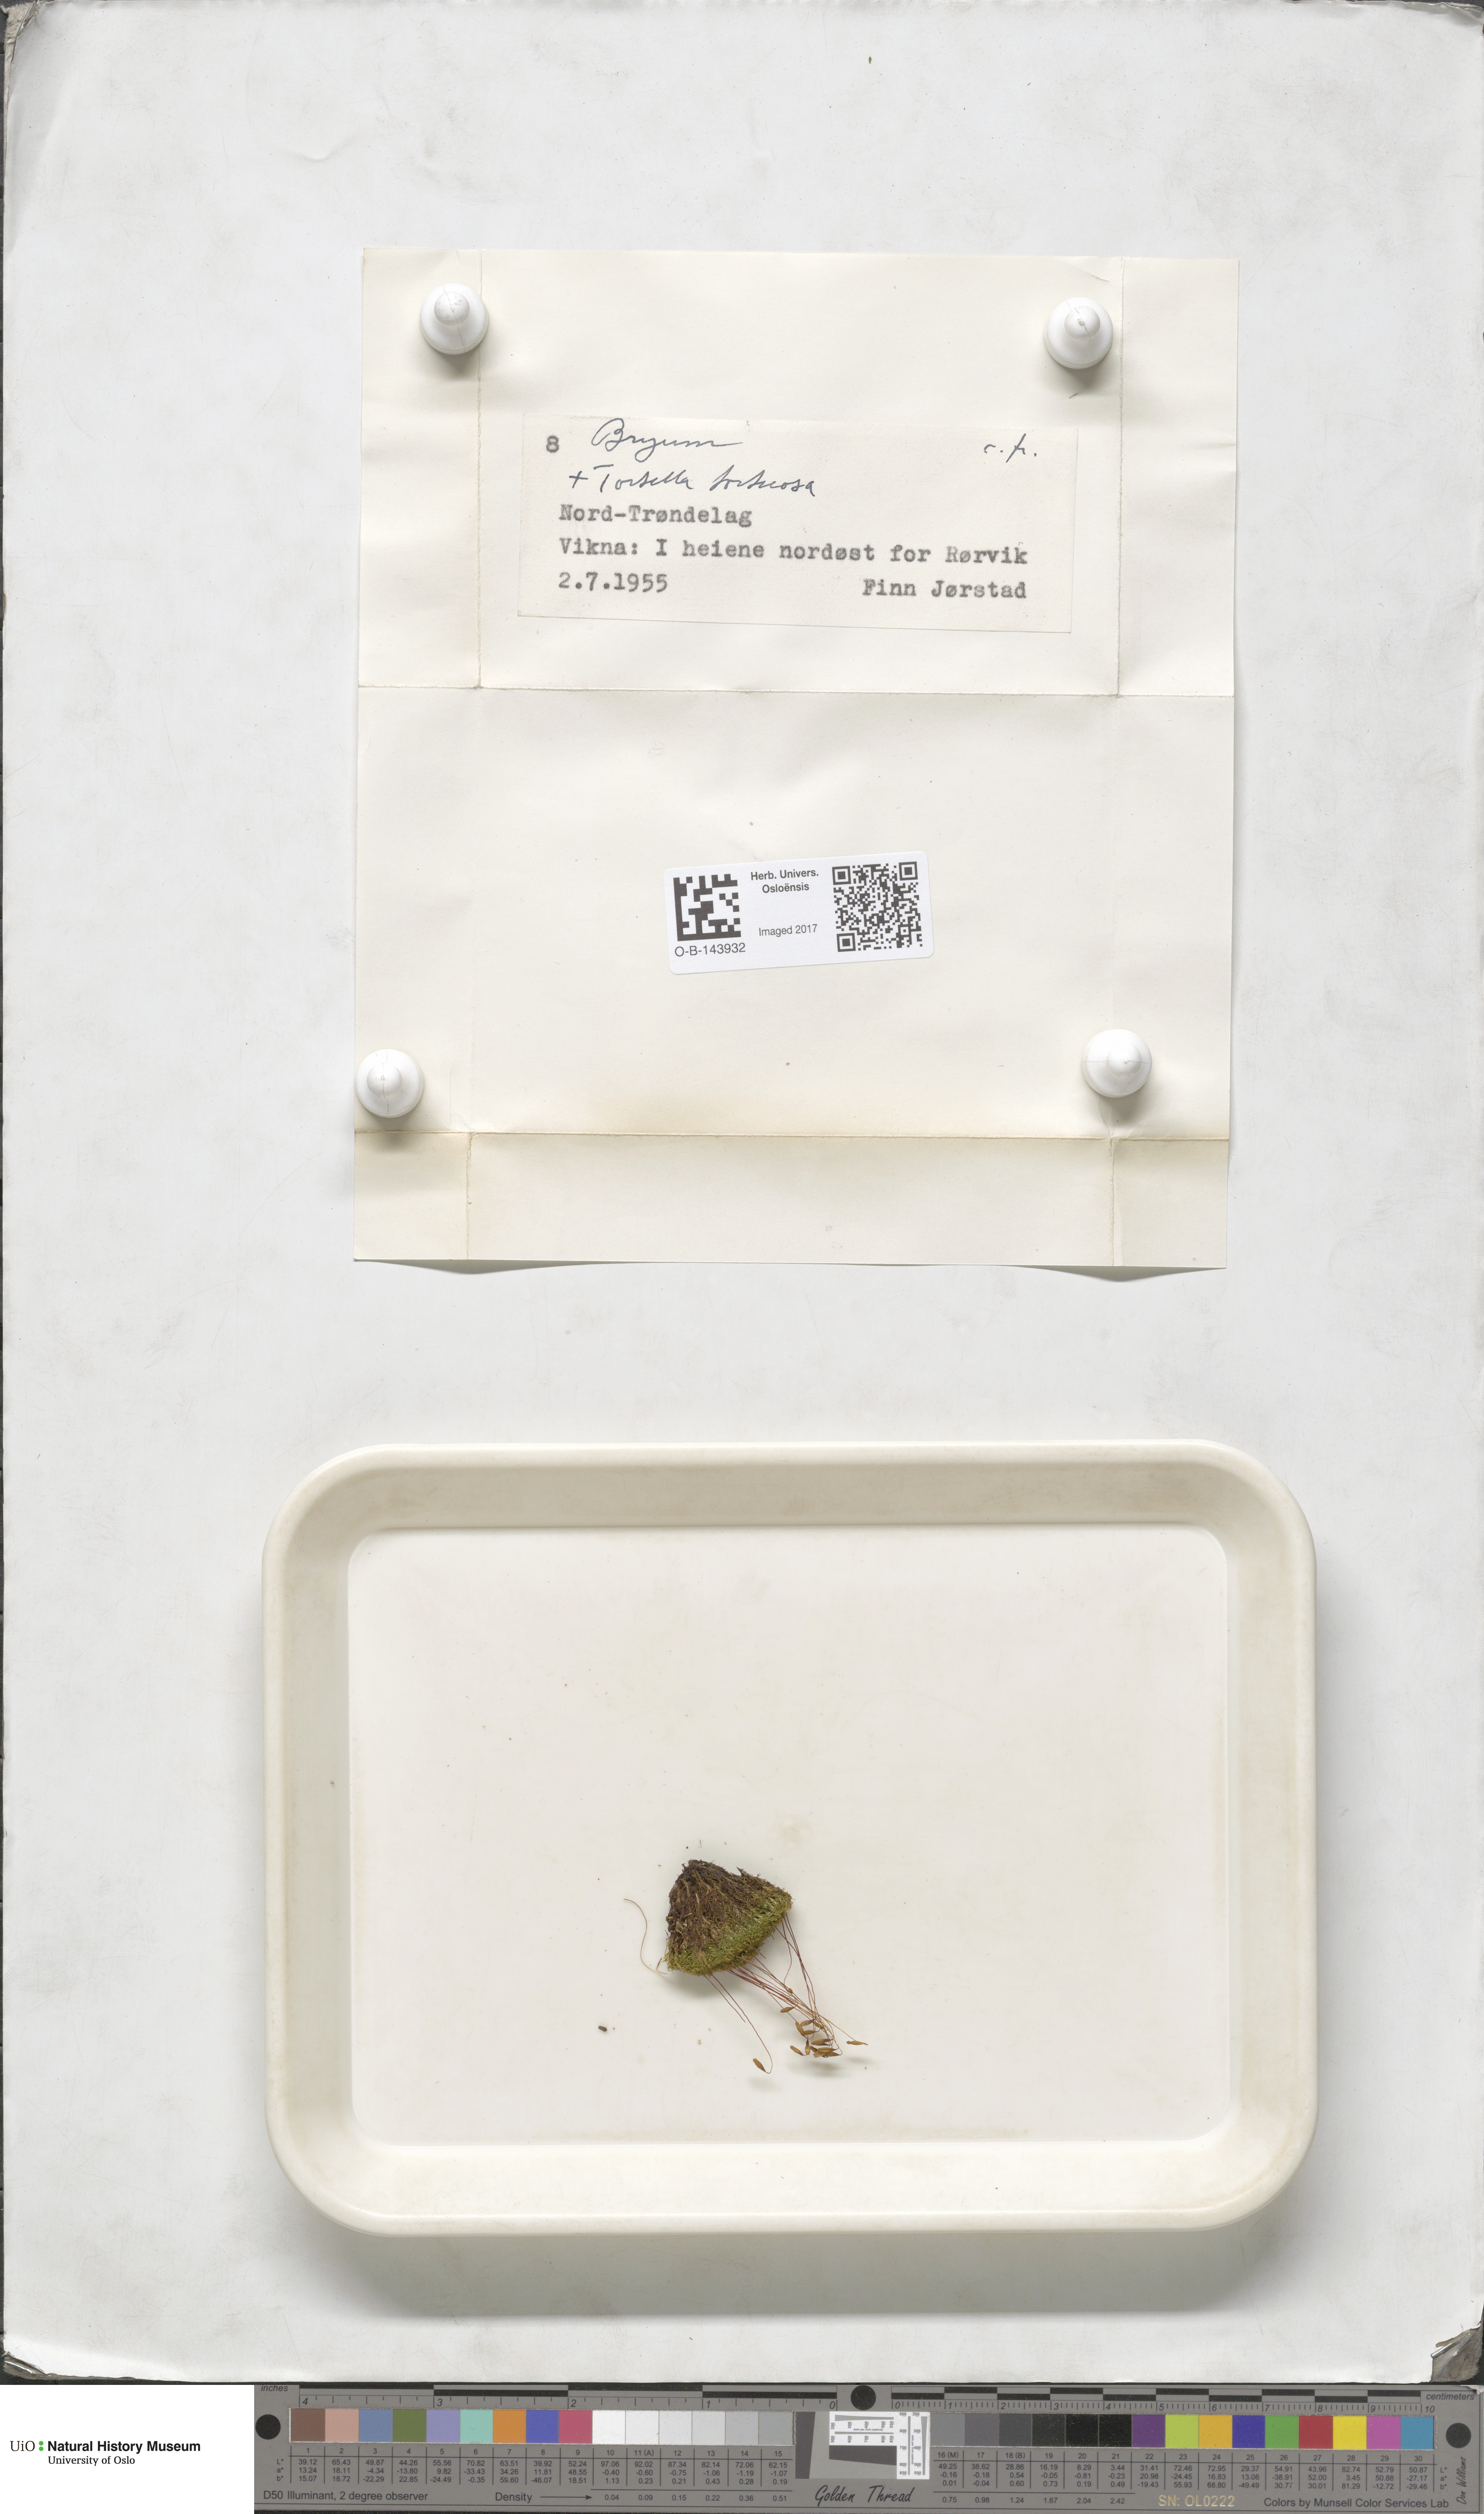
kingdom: Plantae
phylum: Bryophyta
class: Bryopsida
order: Bryales
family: Bryaceae
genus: Bryum
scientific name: Bryum
